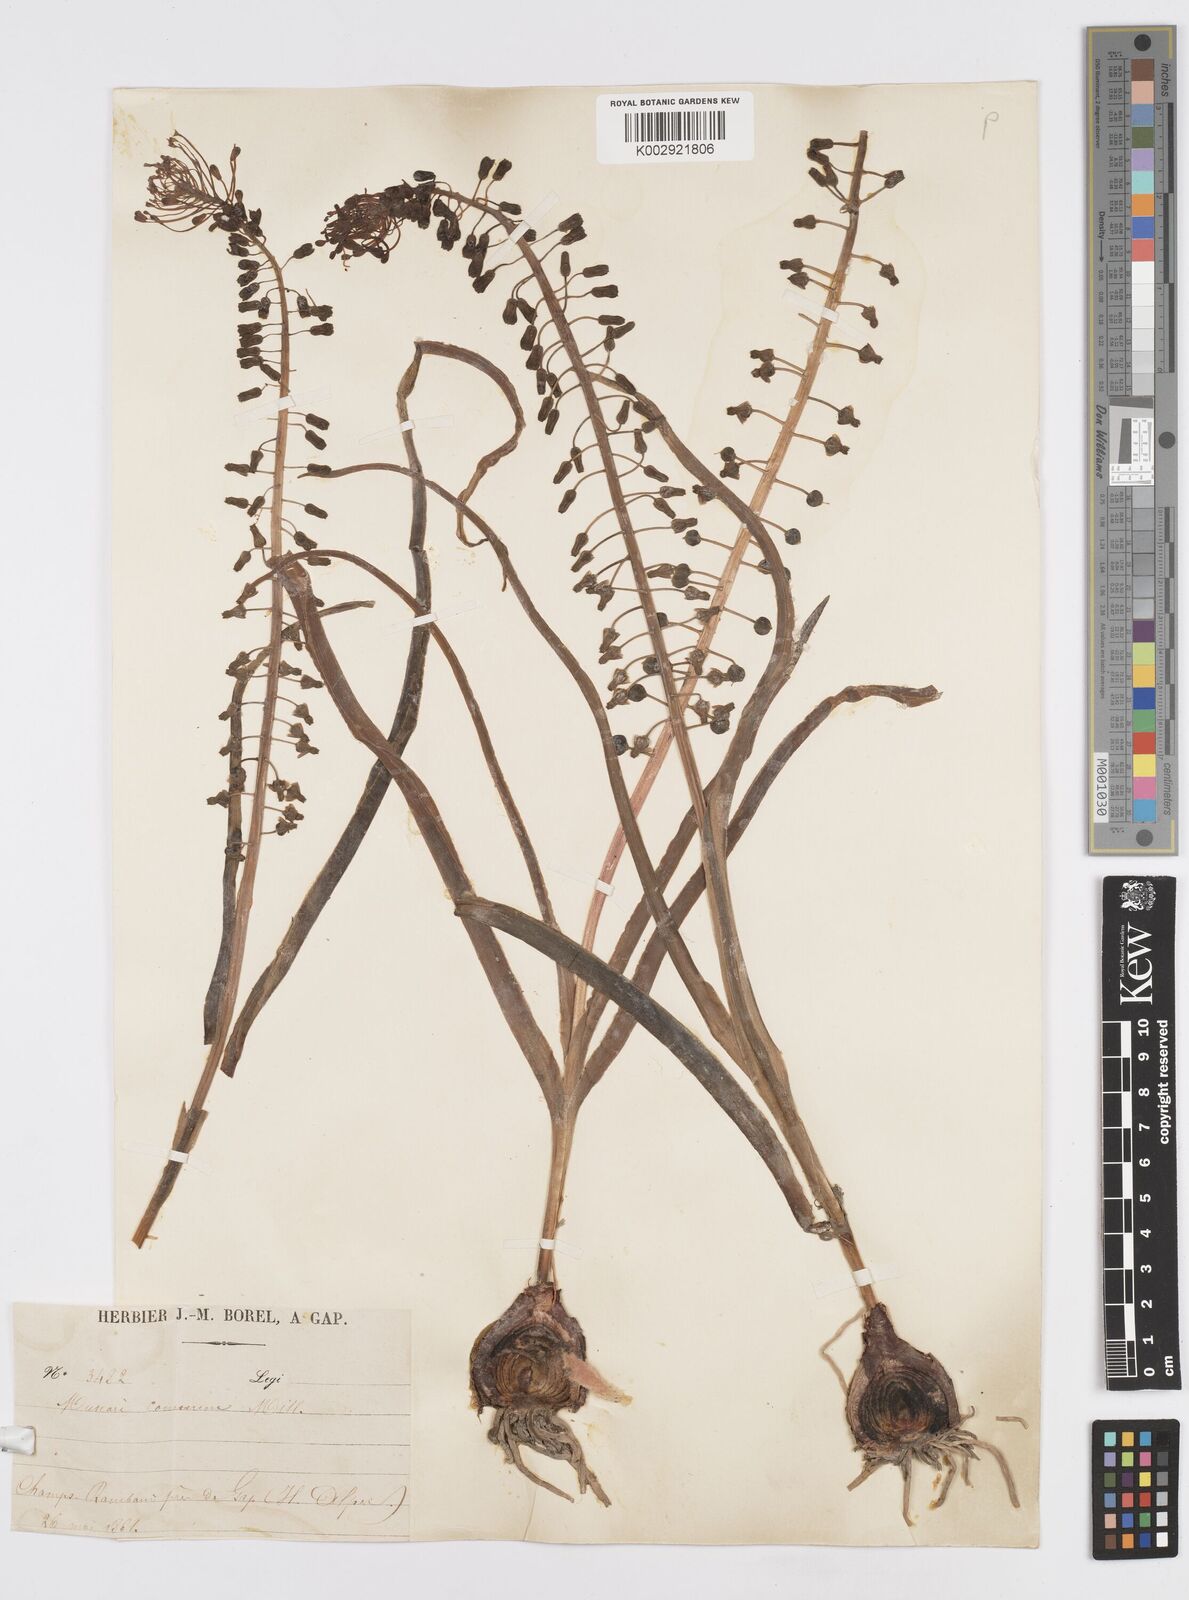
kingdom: Plantae
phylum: Tracheophyta
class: Liliopsida
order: Asparagales
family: Asparagaceae
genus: Muscari
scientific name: Muscari comosum
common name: Tassel hyacinth
